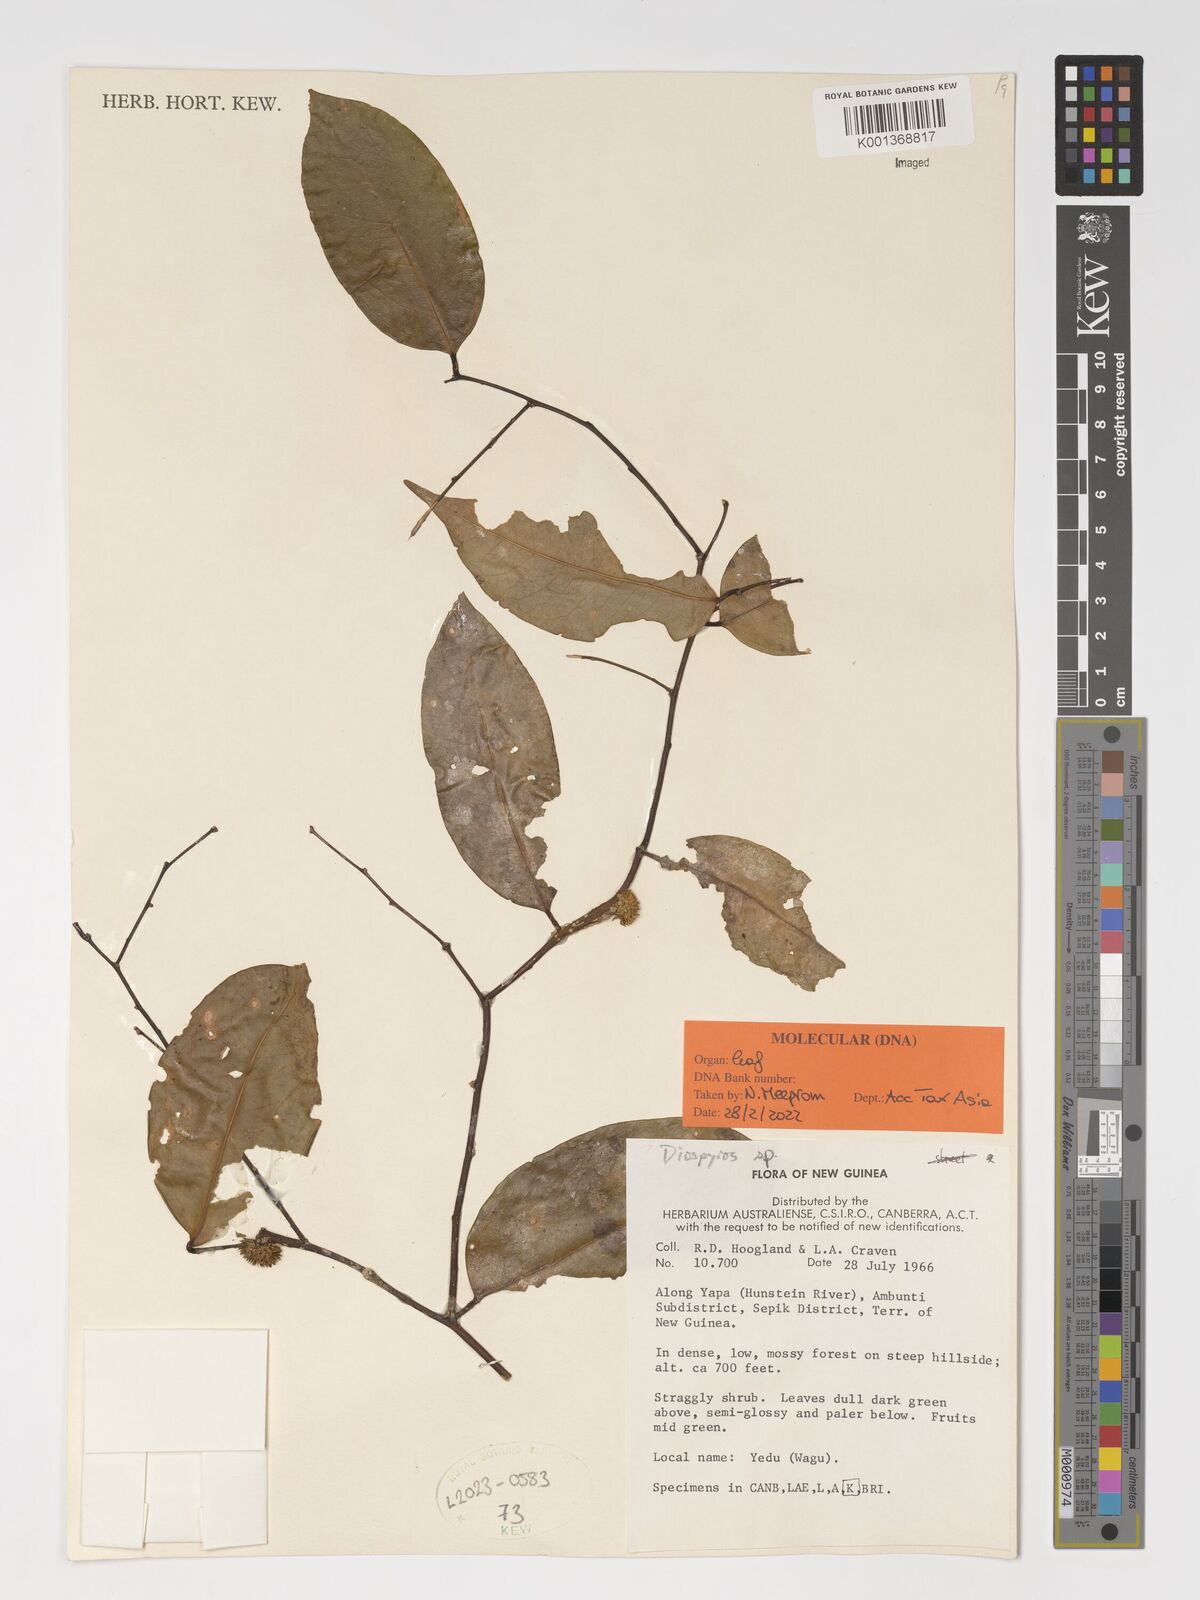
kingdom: Plantae
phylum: Tracheophyta
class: Magnoliopsida
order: Ericales
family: Ebenaceae
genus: Diospyros
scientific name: Diospyros
